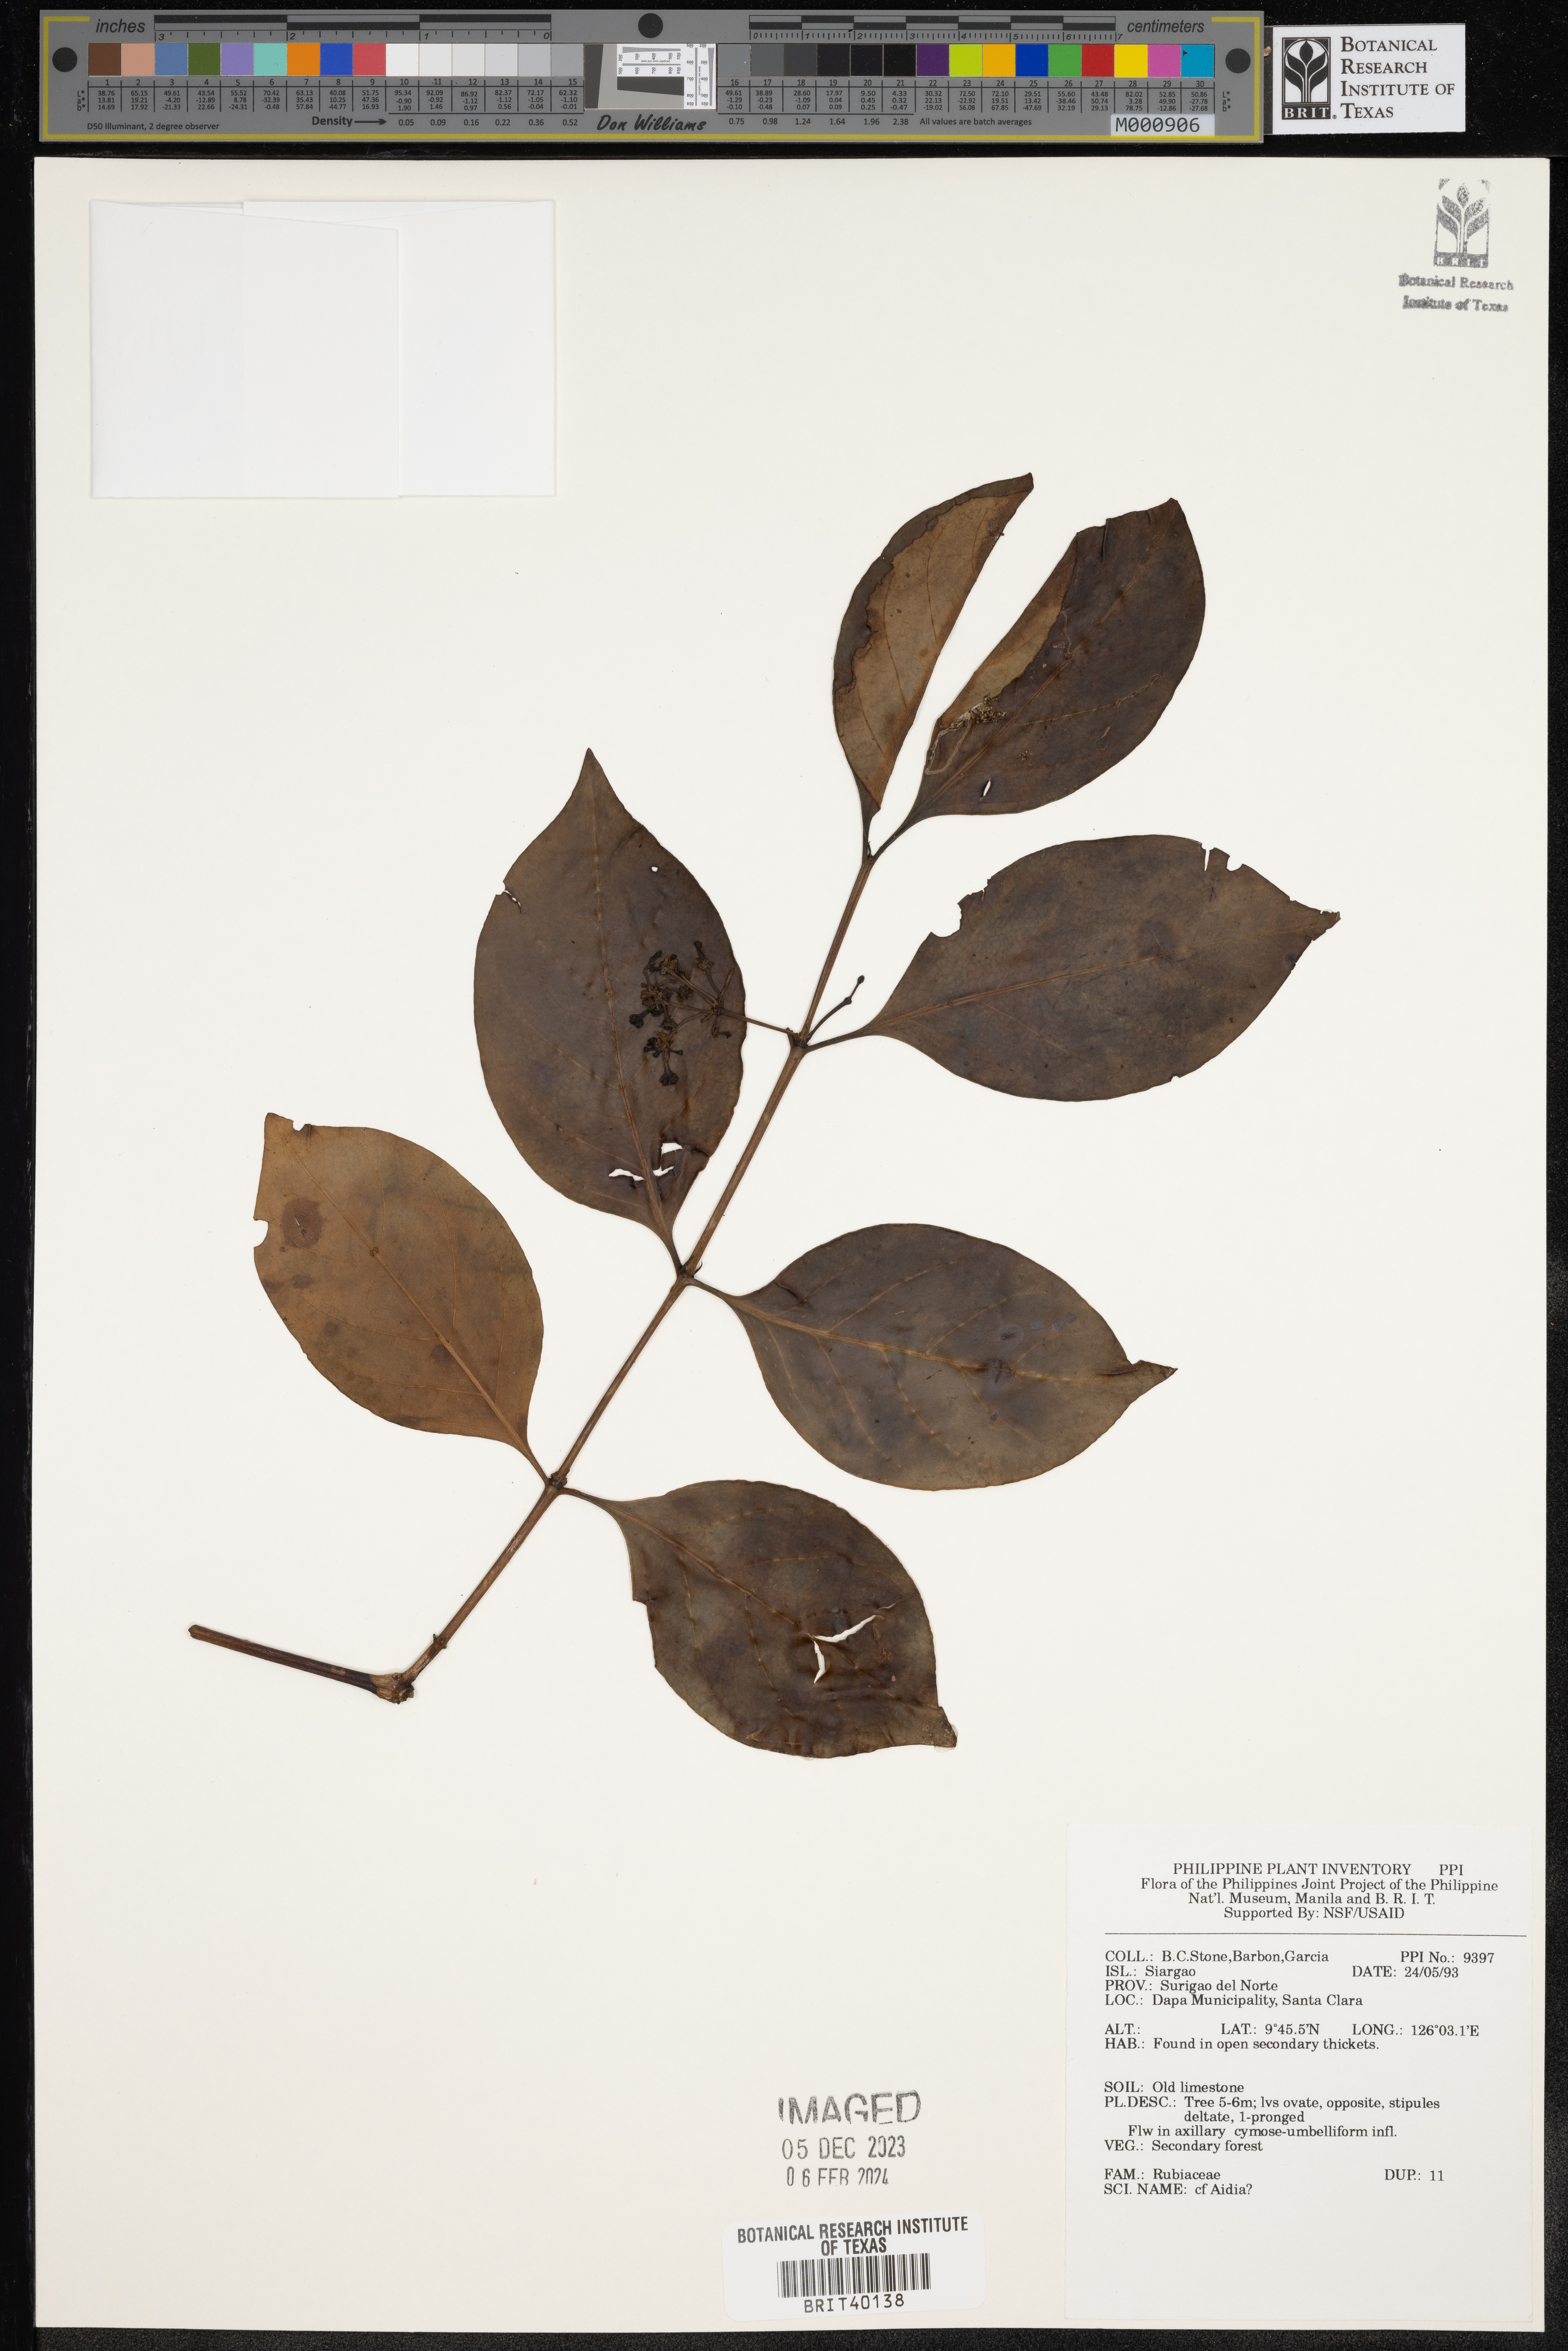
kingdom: Plantae
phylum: Tracheophyta
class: Magnoliopsida
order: Gentianales
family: Rubiaceae
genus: Aidia
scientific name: Aidia
